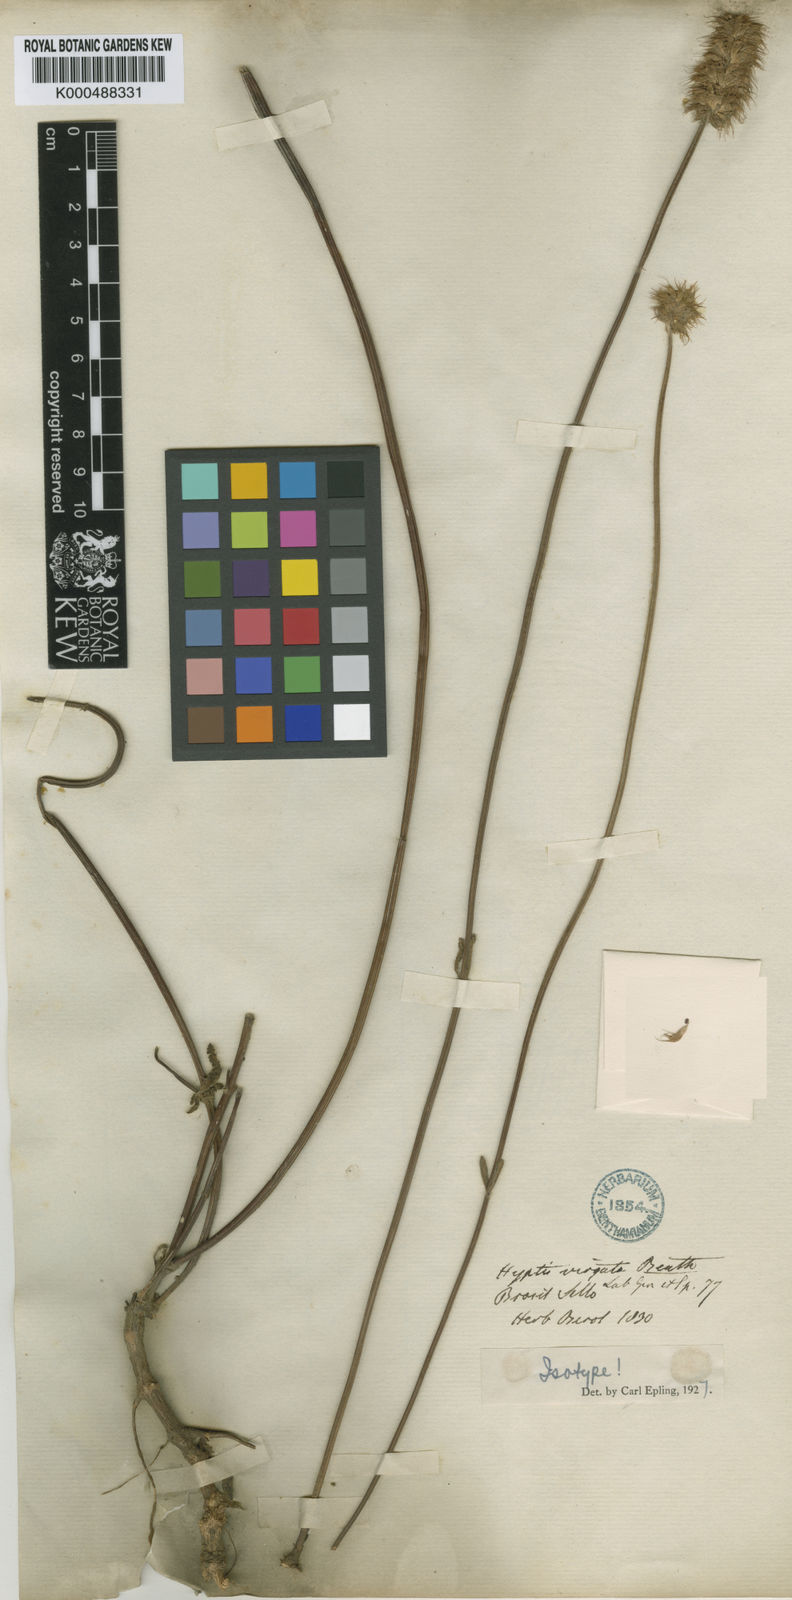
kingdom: Plantae
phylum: Tracheophyta
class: Magnoliopsida
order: Lamiales
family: Lamiaceae
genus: Gymneia
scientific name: Gymneia virgata
